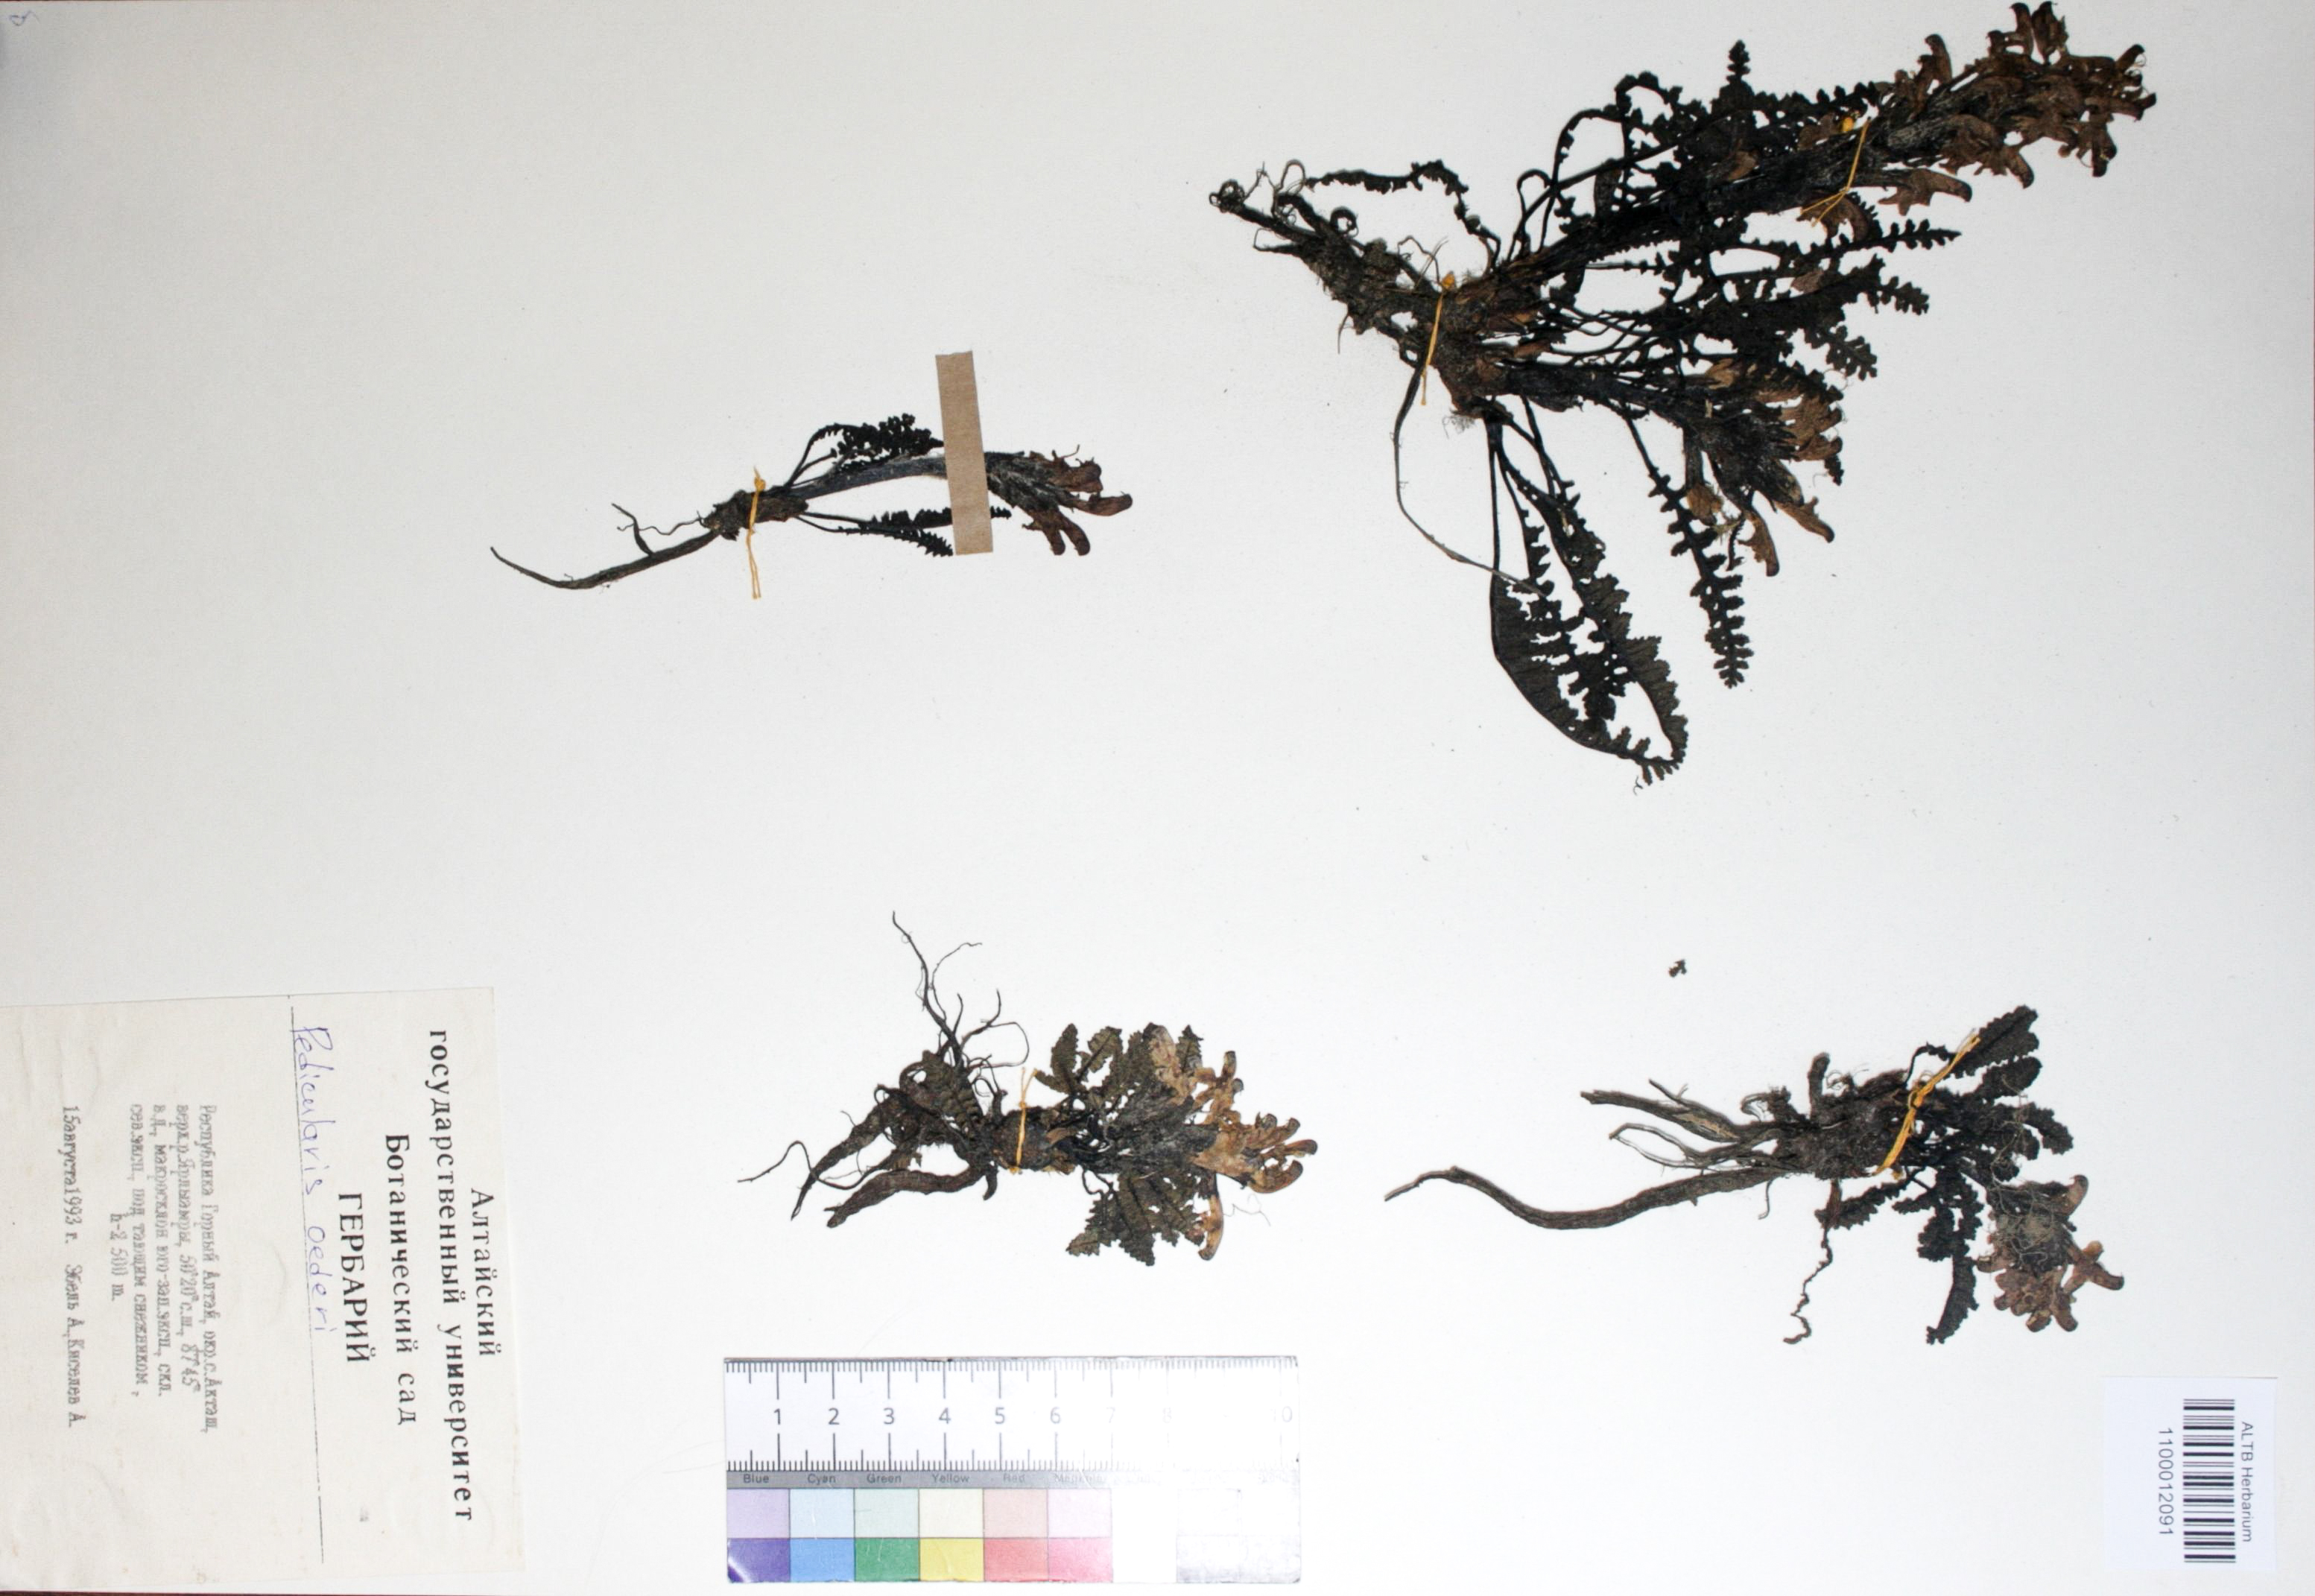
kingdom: Plantae
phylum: Tracheophyta
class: Magnoliopsida
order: Caryophyllales
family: Caryophyllaceae
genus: Silene
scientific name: Silene graminifolia
